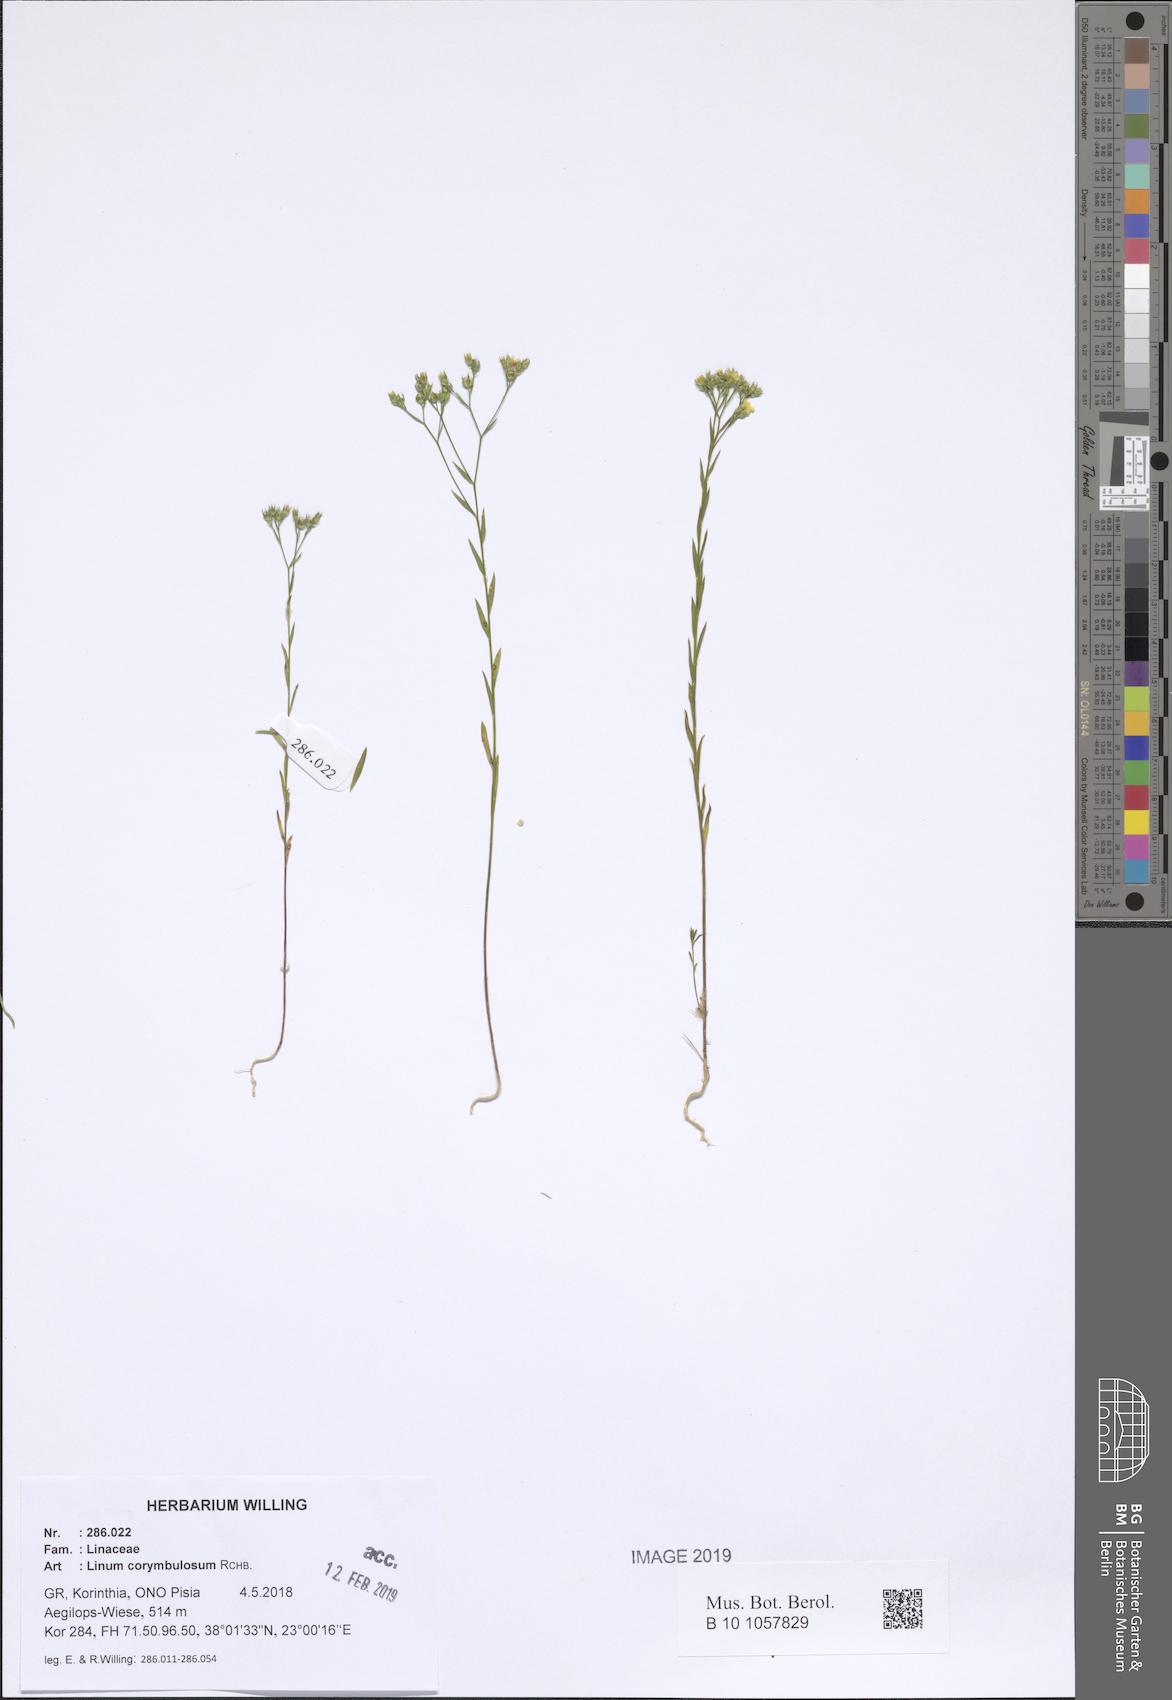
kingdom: Plantae
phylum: Tracheophyta
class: Magnoliopsida
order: Malpighiales
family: Linaceae
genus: Linum
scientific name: Linum corymbulosum
